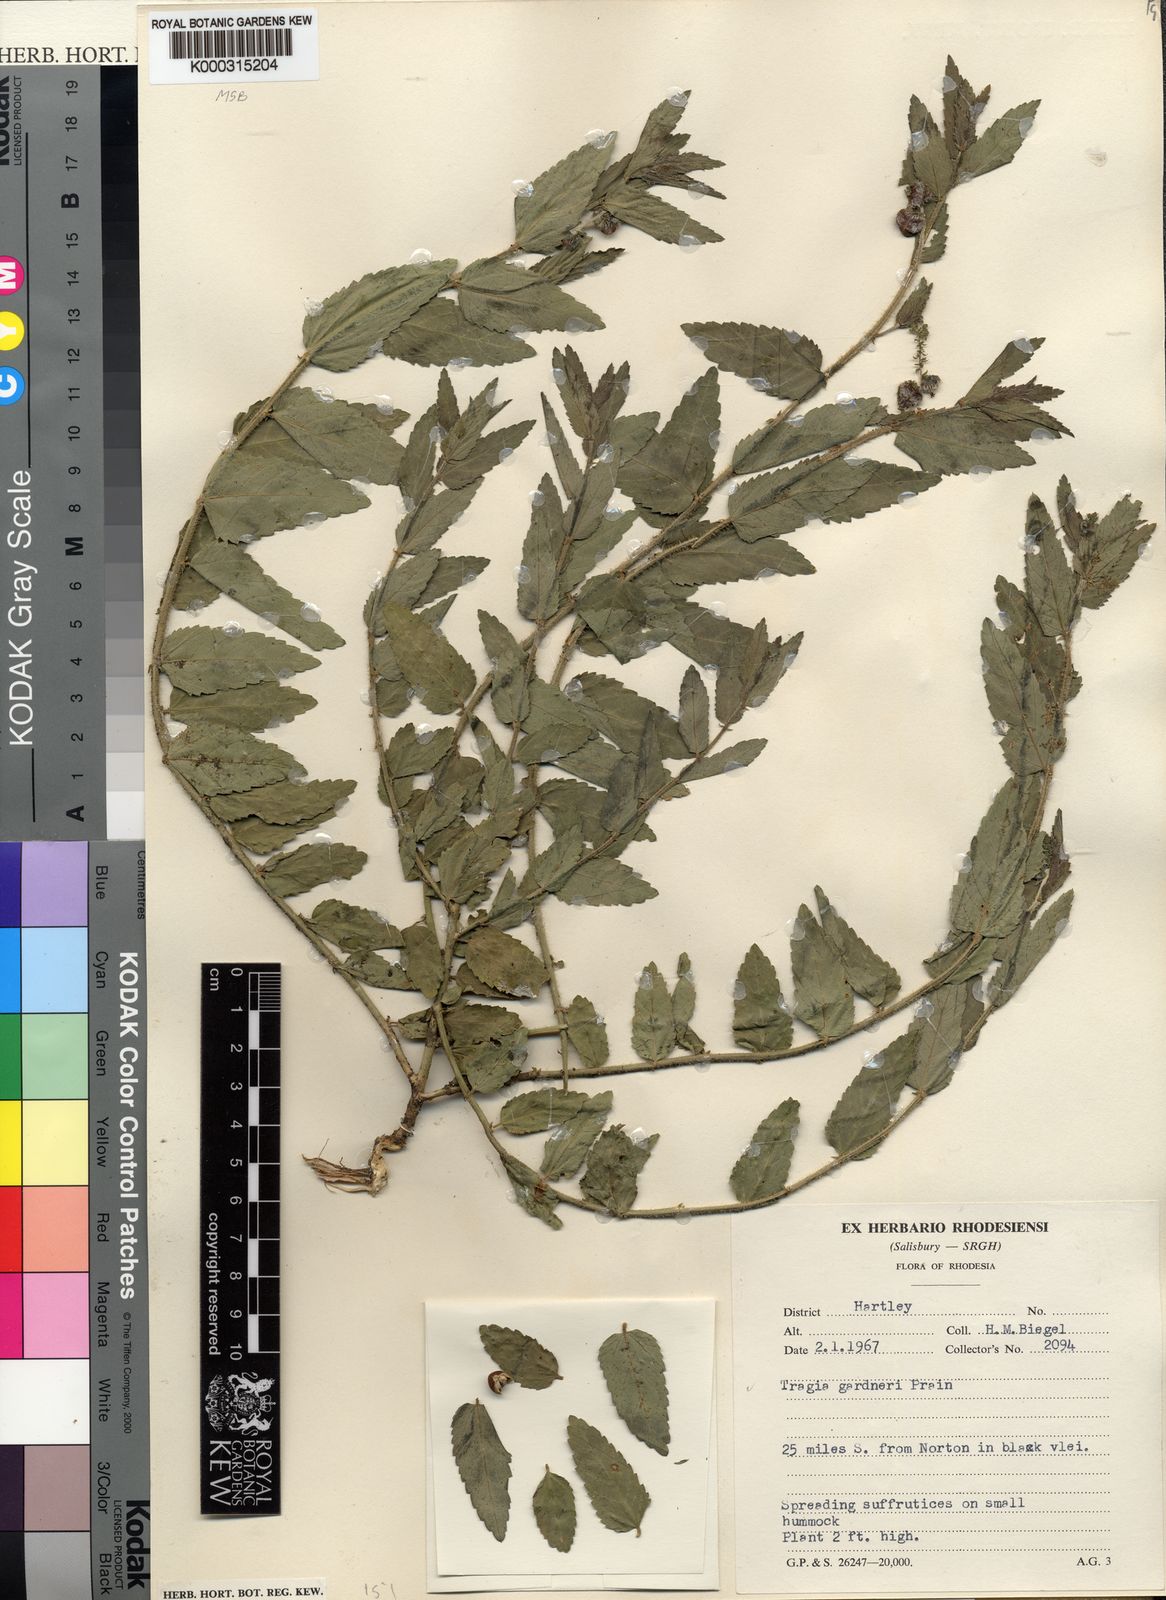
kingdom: Plantae
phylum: Tracheophyta
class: Magnoliopsida
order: Malpighiales
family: Euphorbiaceae
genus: Tragia
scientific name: Tragia gardneri
